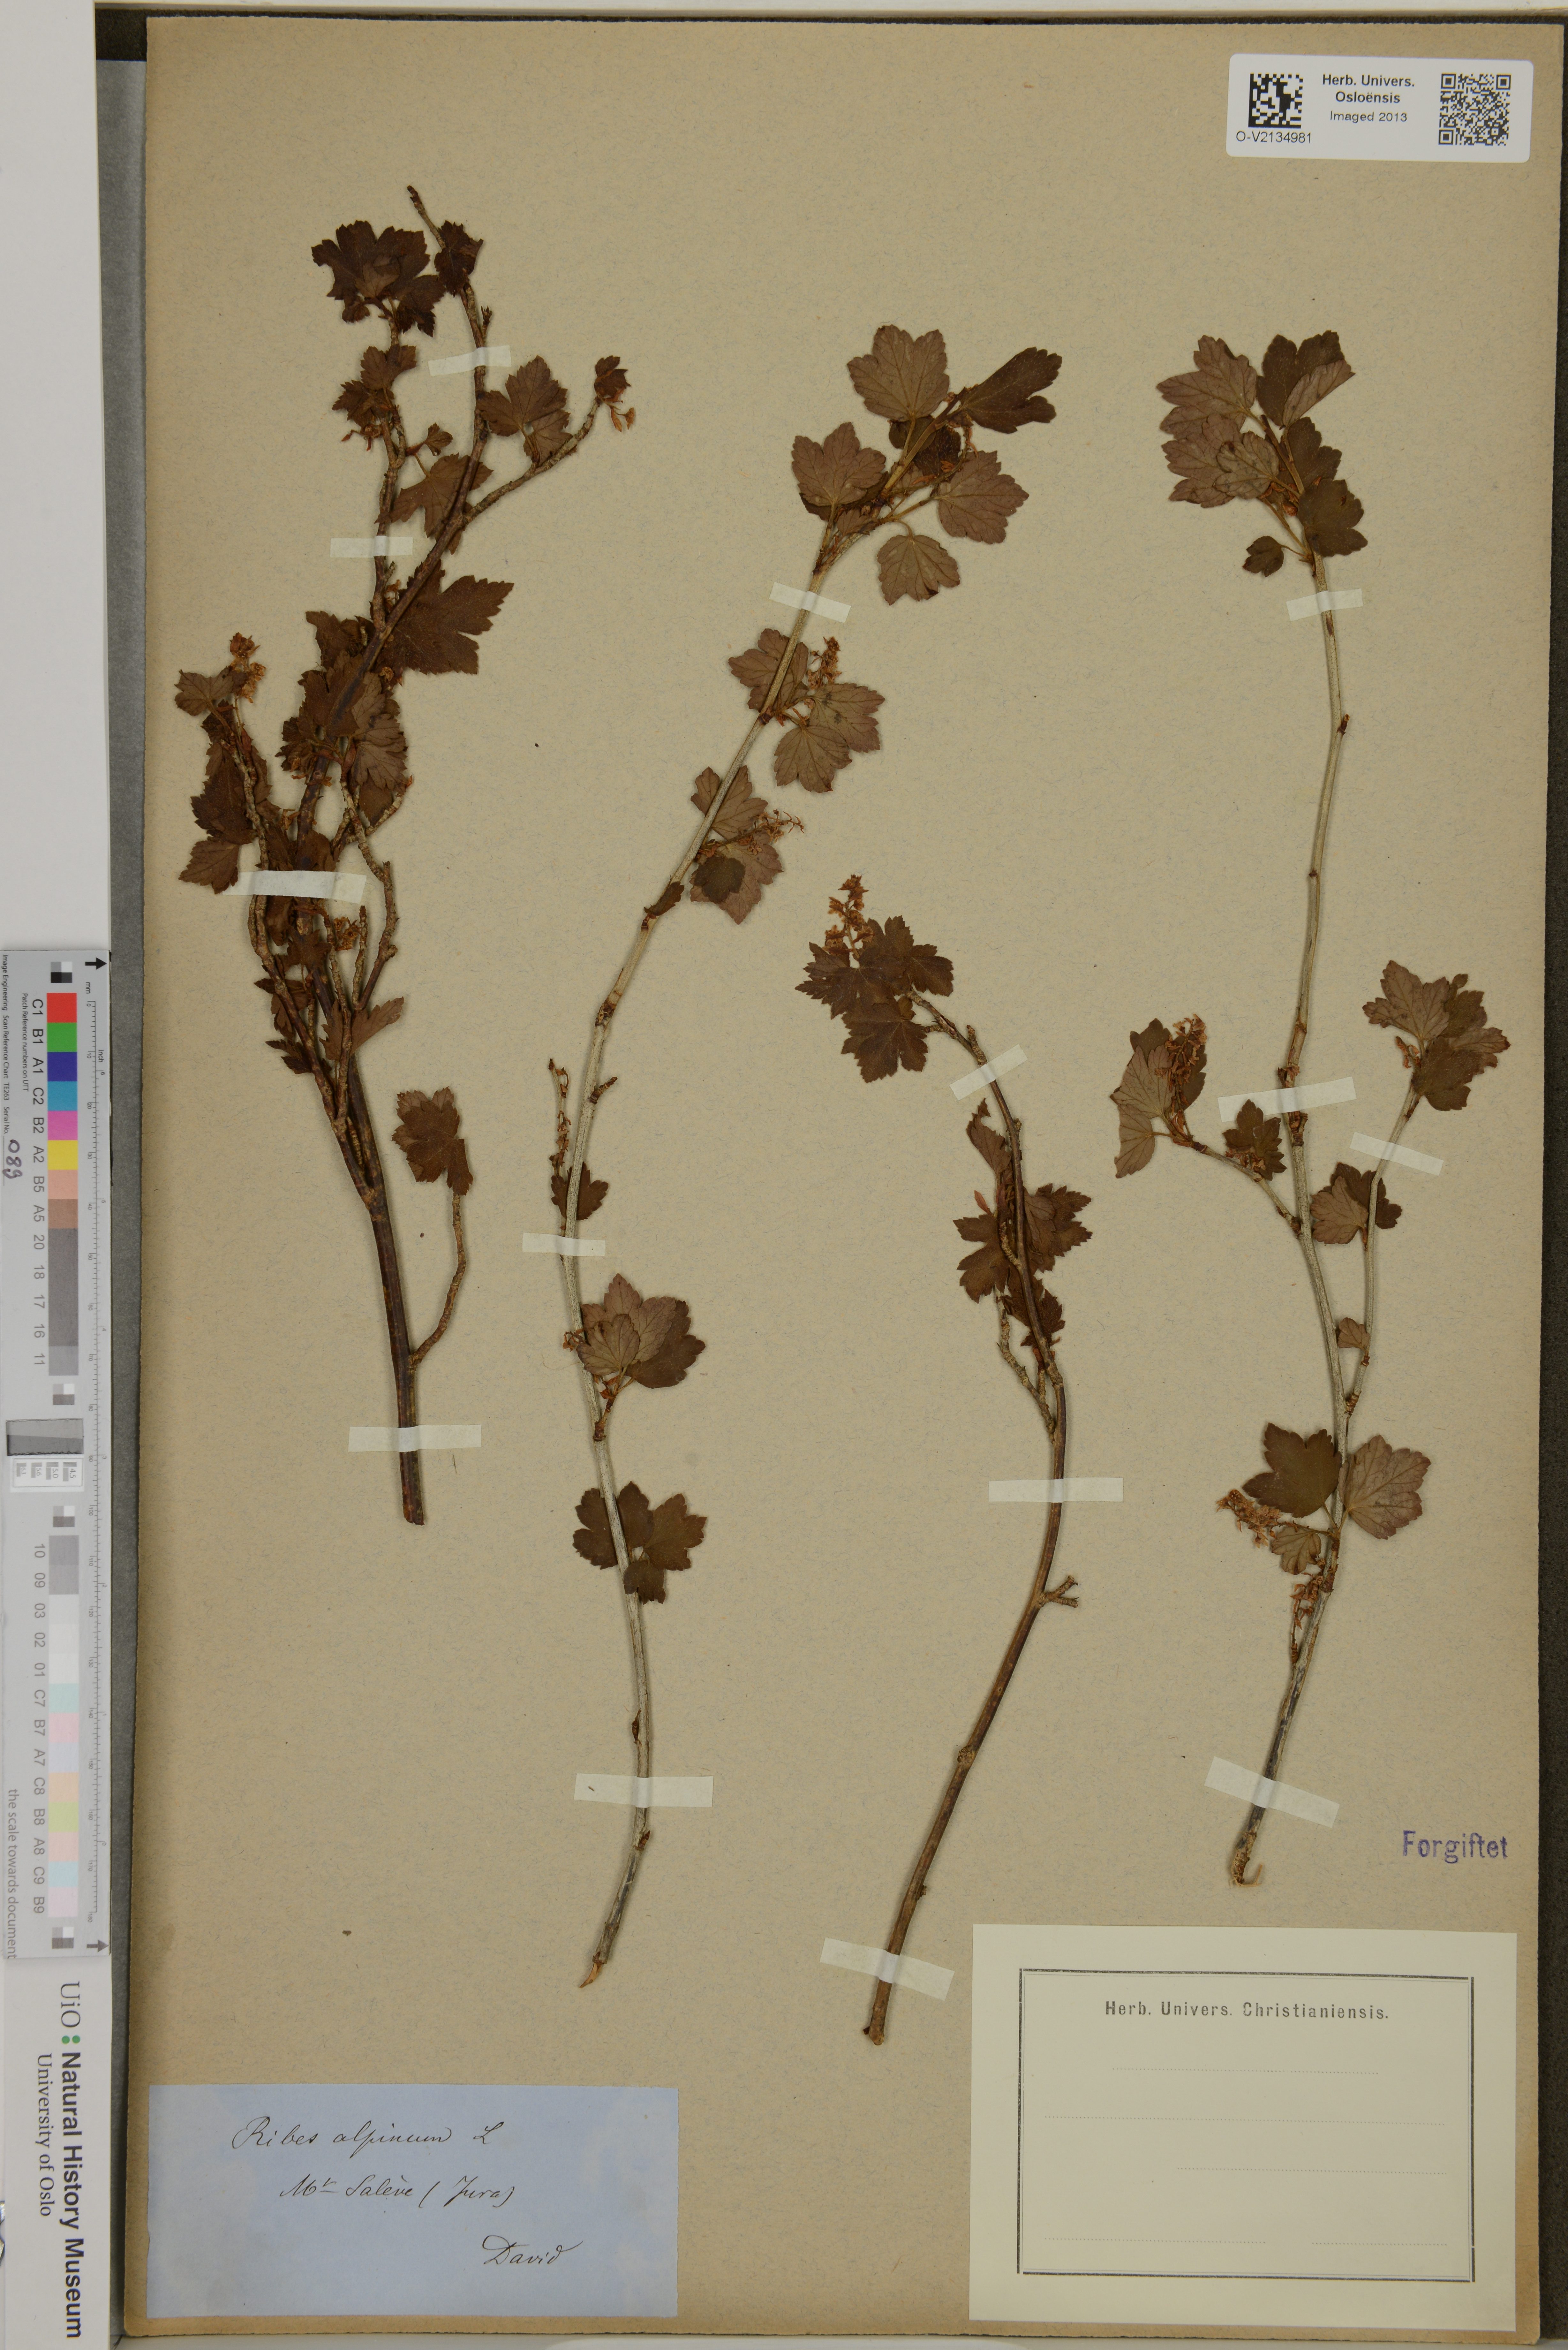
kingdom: Plantae
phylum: Tracheophyta
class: Magnoliopsida
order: Saxifragales
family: Grossulariaceae
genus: Ribes
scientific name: Ribes alpinum
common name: Alpine currant
